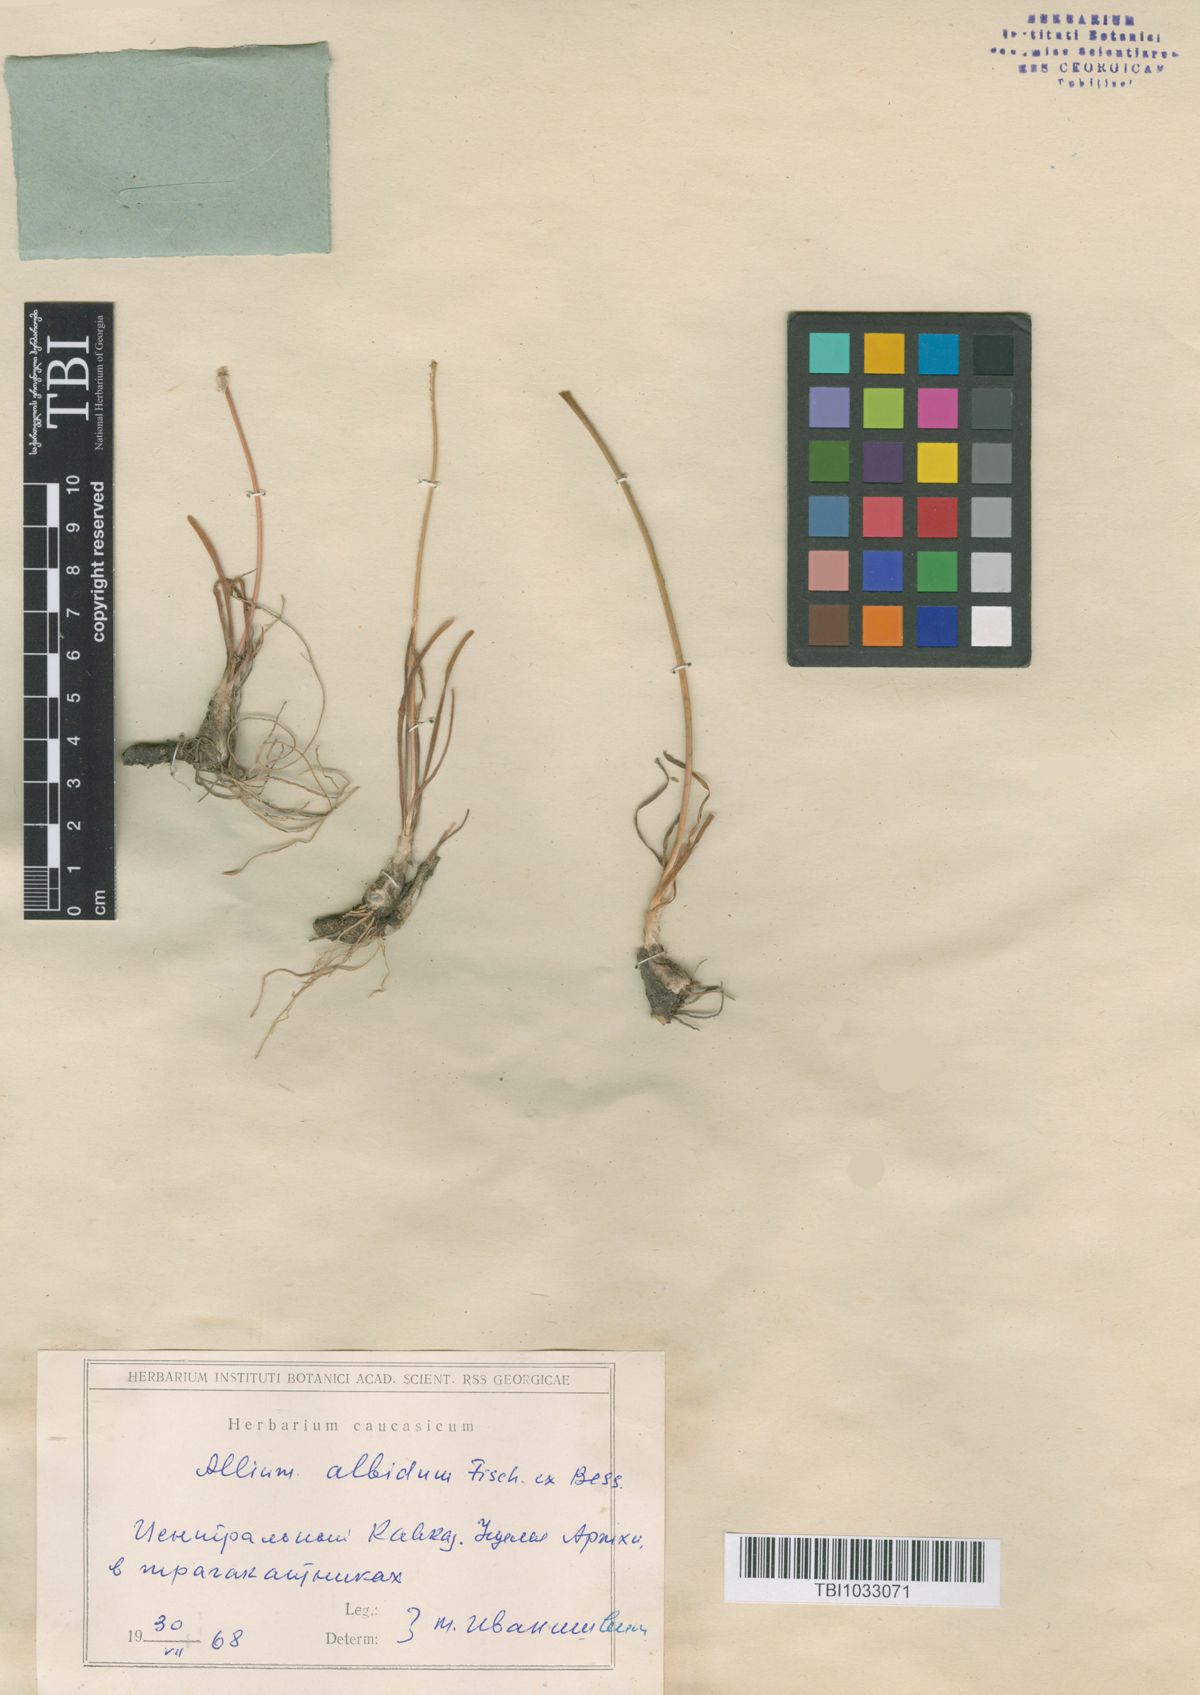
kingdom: Plantae
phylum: Tracheophyta
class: Liliopsida
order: Asparagales
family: Amaryllidaceae
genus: Allium
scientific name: Allium denudatum
